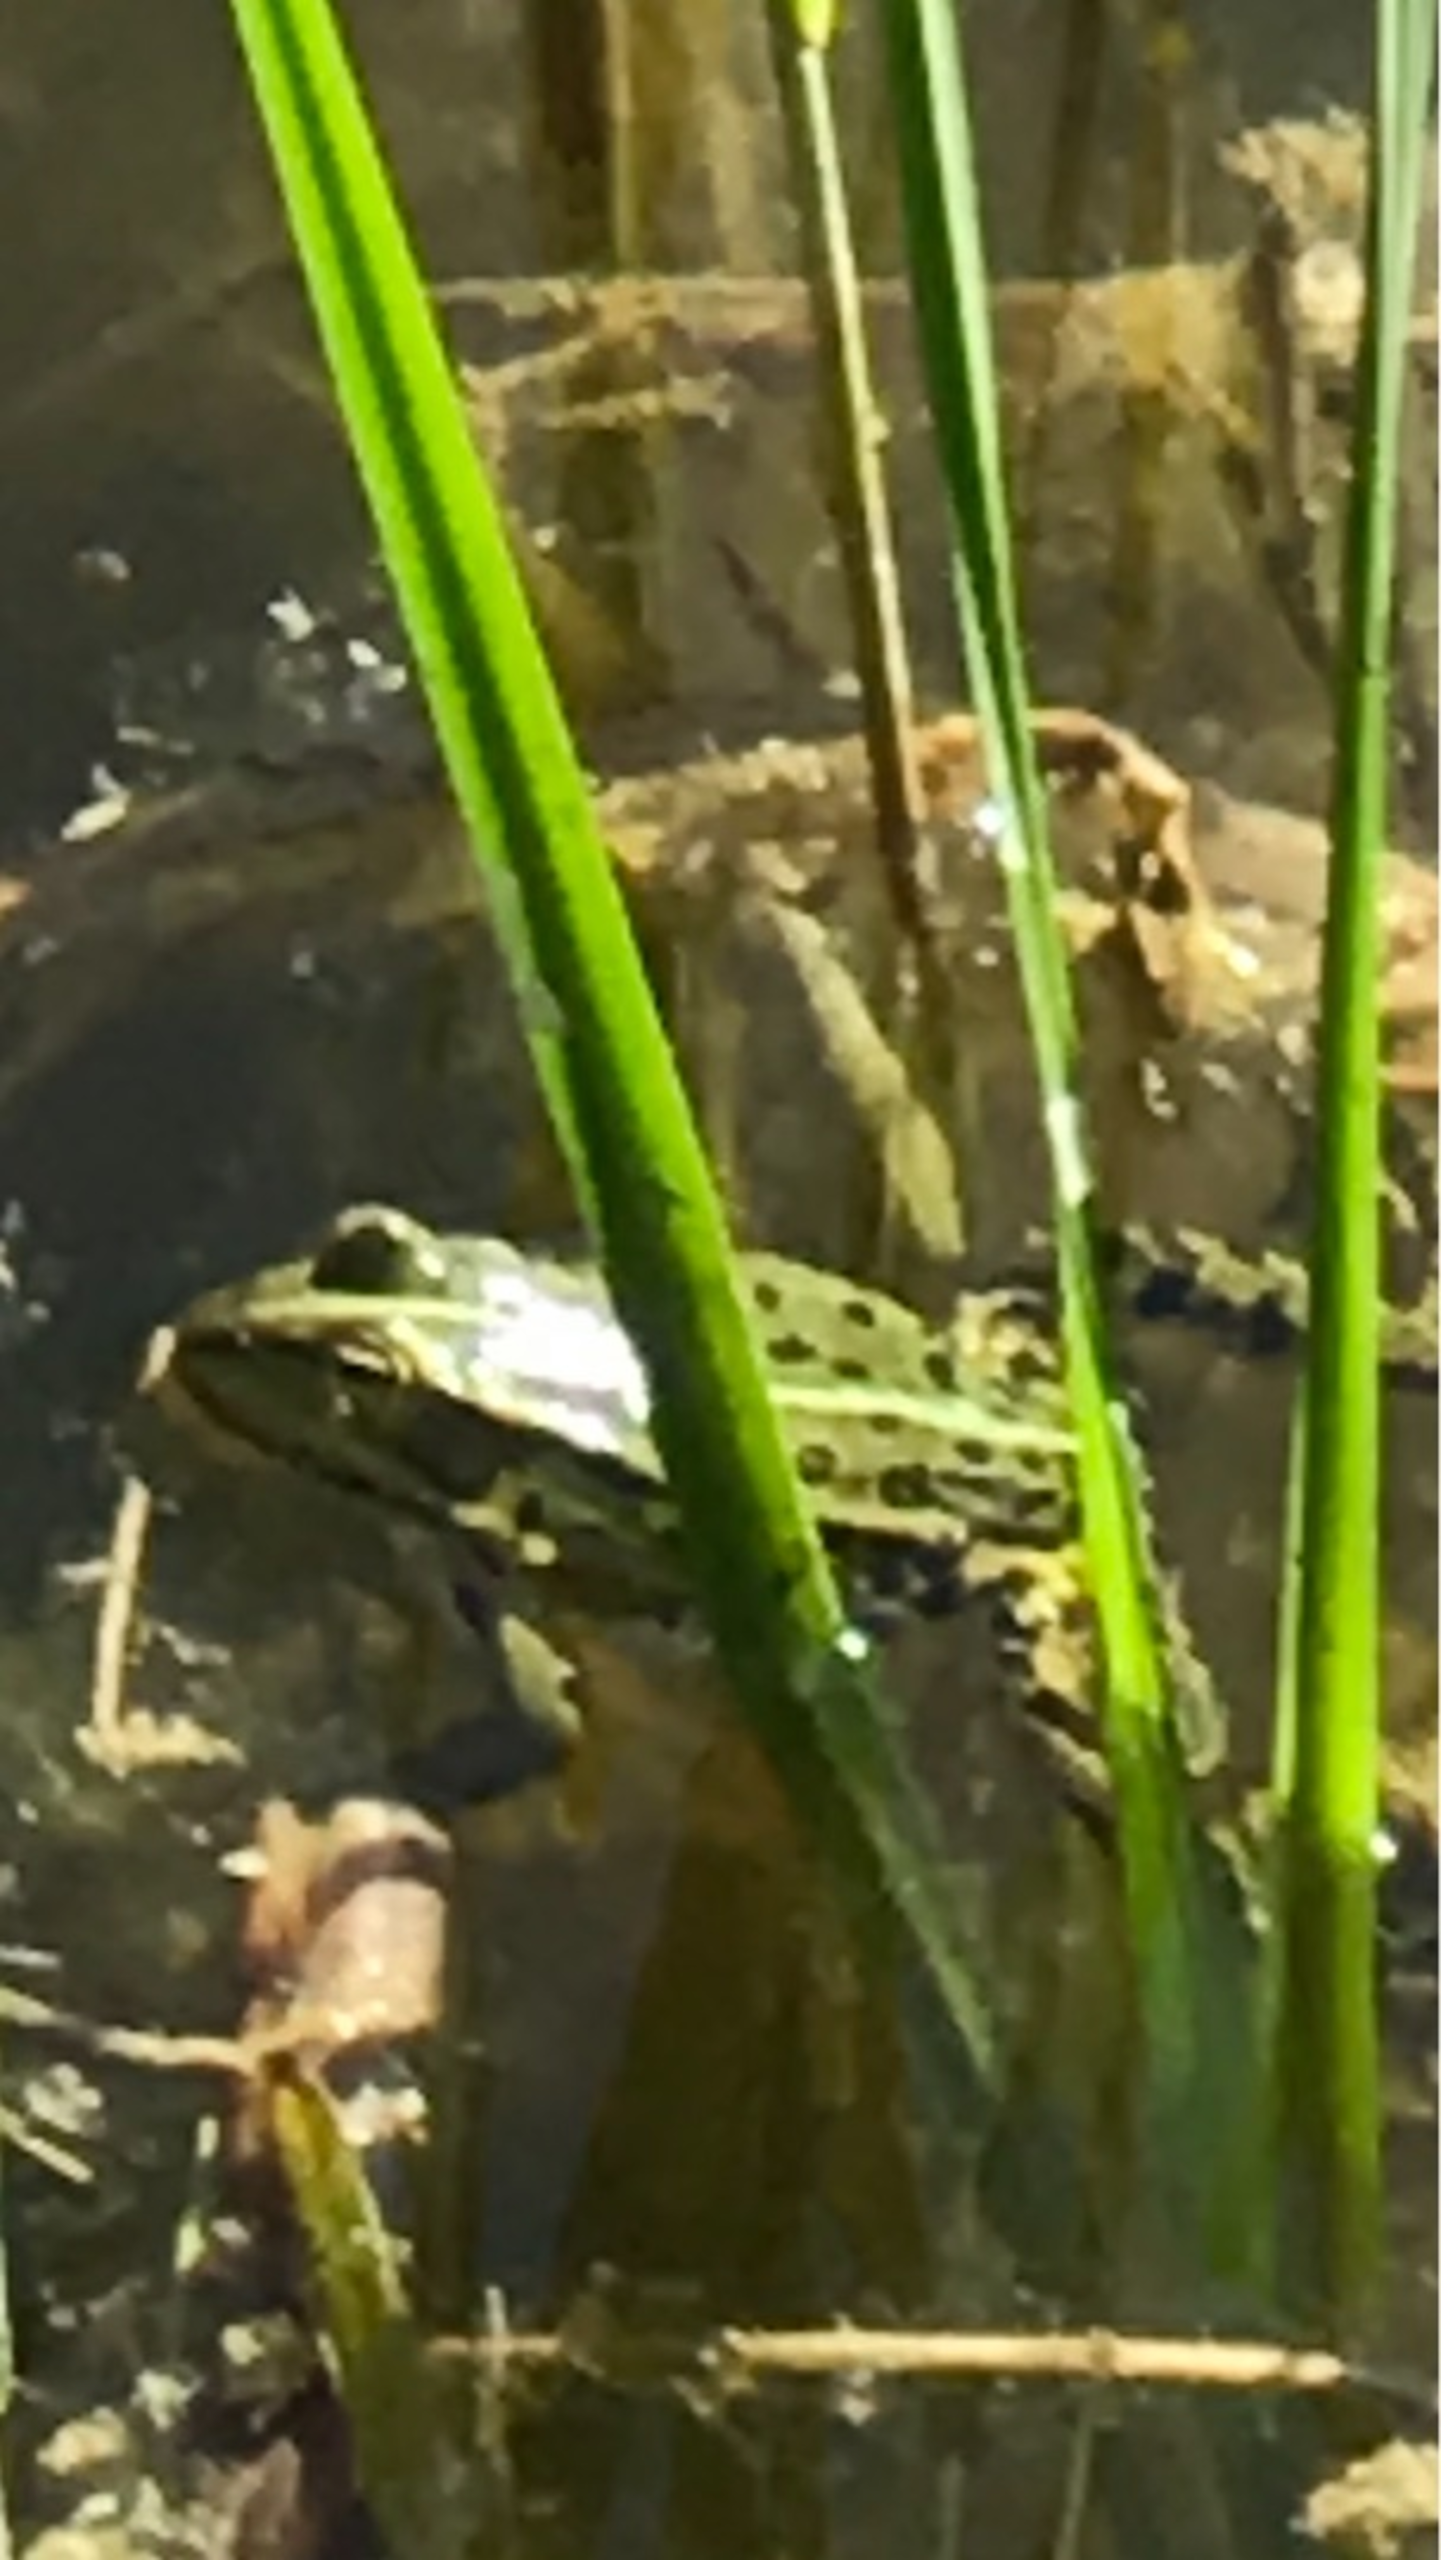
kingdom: Animalia
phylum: Chordata
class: Amphibia
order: Anura
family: Ranidae
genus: Pelophylax
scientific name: Pelophylax lessonae
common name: Grøn frø
